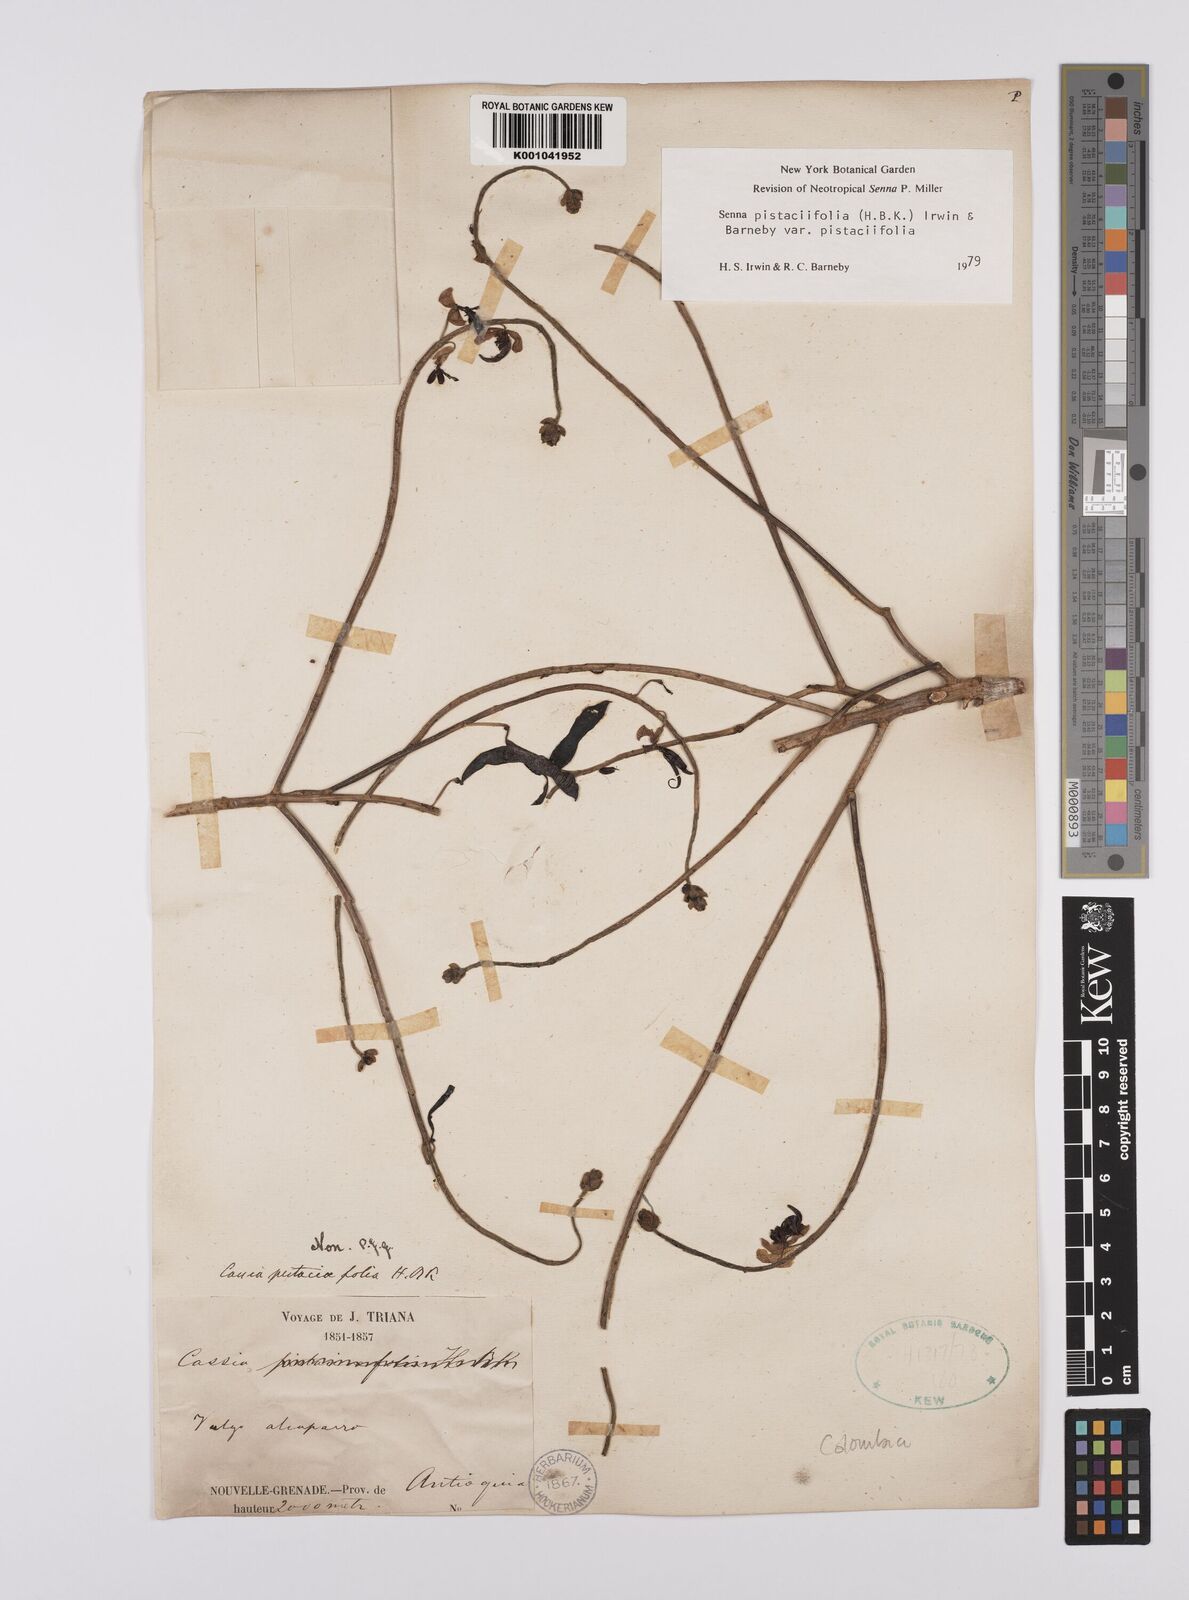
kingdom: Plantae
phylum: Tracheophyta
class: Magnoliopsida
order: Fabales
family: Fabaceae
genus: Senna
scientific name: Senna pistaciifolia
